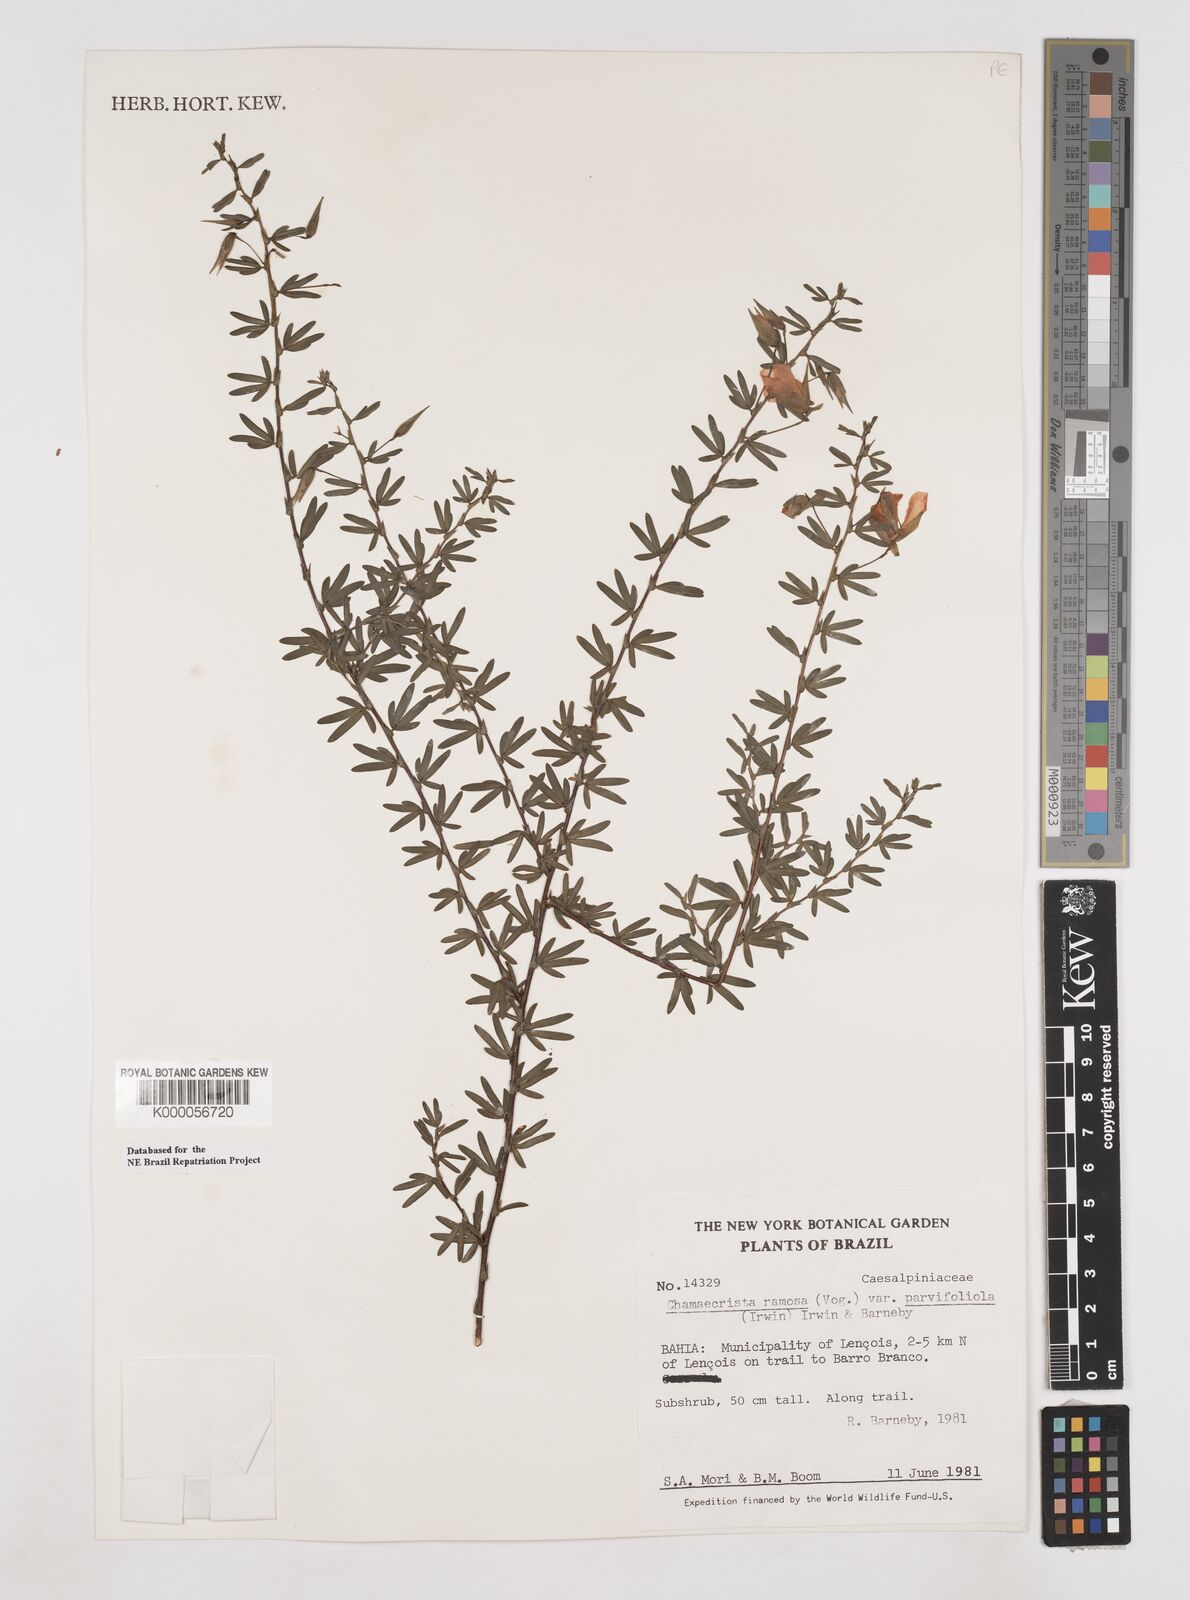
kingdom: Plantae
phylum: Tracheophyta
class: Magnoliopsida
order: Fabales
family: Fabaceae
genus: Chamaecrista
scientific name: Chamaecrista ramosa
